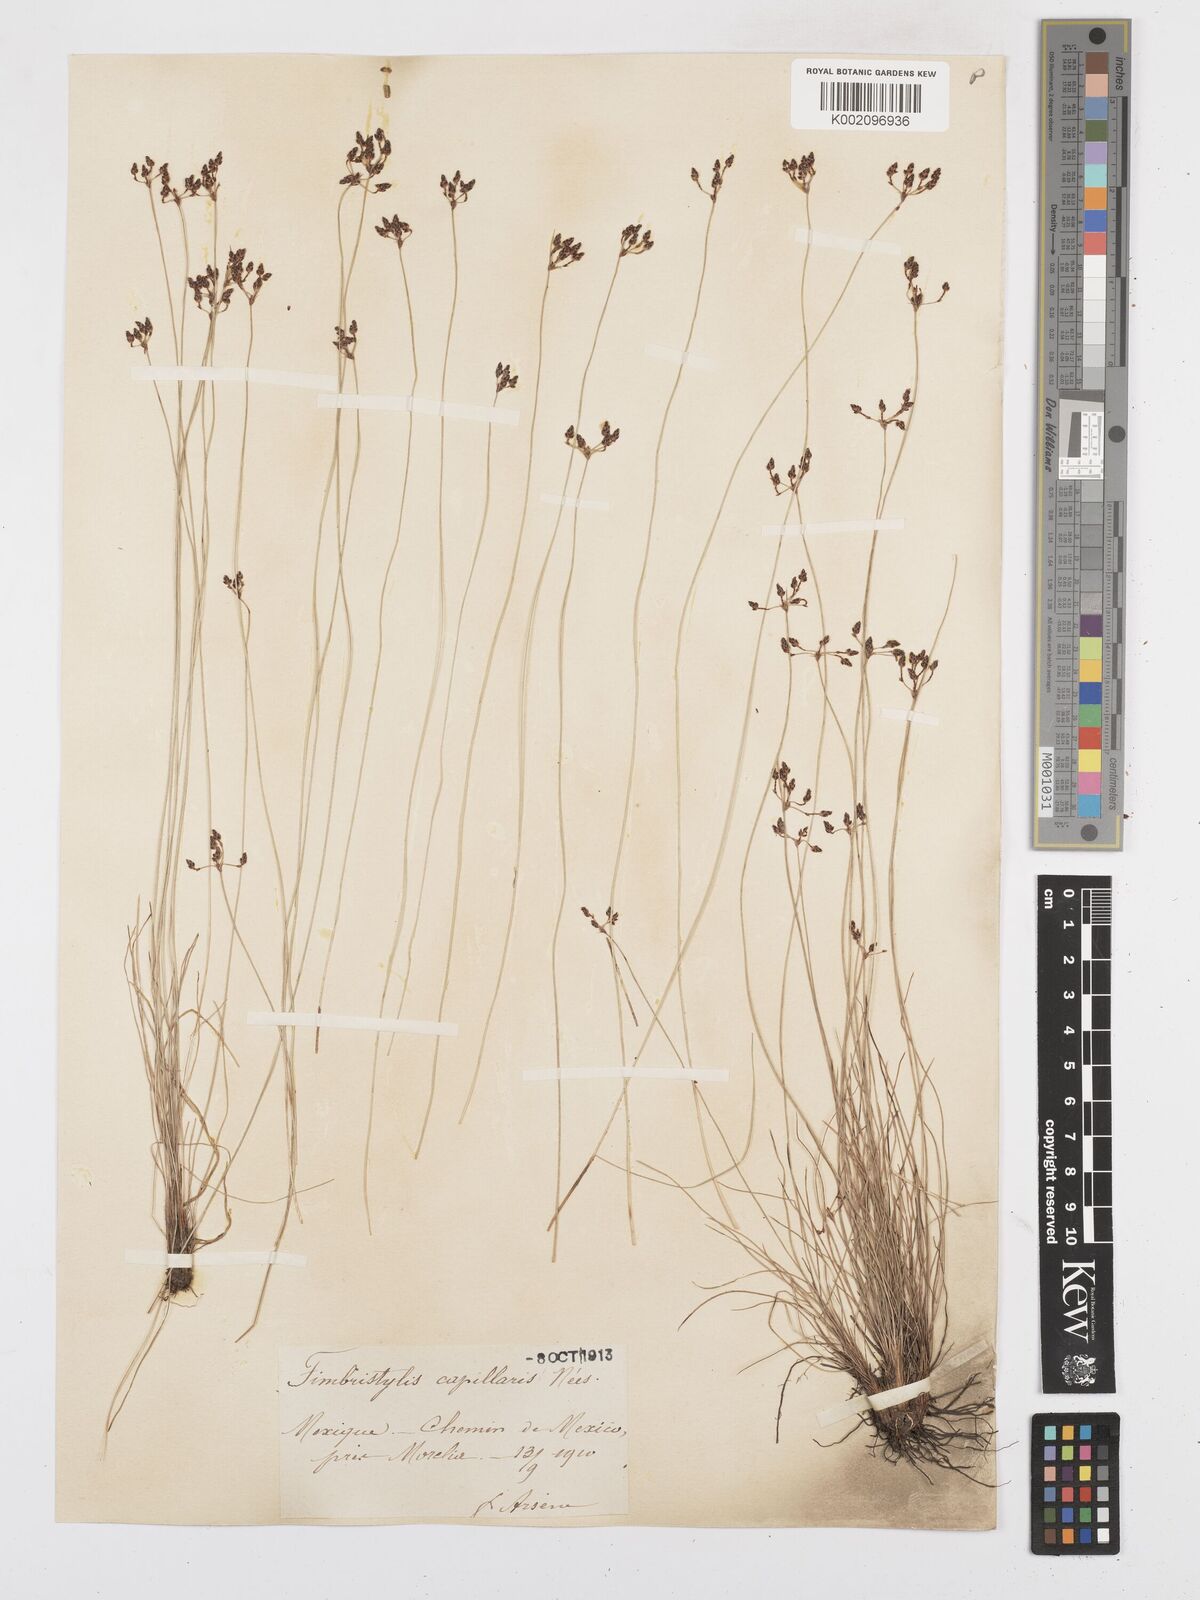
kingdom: Plantae
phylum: Tracheophyta
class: Liliopsida
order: Poales
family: Cyperaceae
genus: Bulbostylis
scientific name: Bulbostylis capillaris
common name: Densetuft hairsedge
